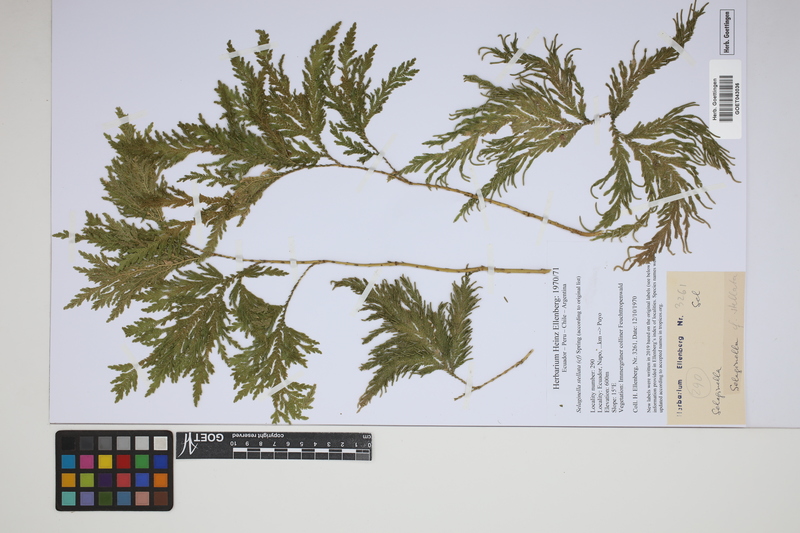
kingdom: Plantae
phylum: Tracheophyta
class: Lycopodiopsida
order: Selaginellales
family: Selaginellaceae
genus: Selaginella
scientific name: Selaginella stellata
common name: Starry spikemoss
